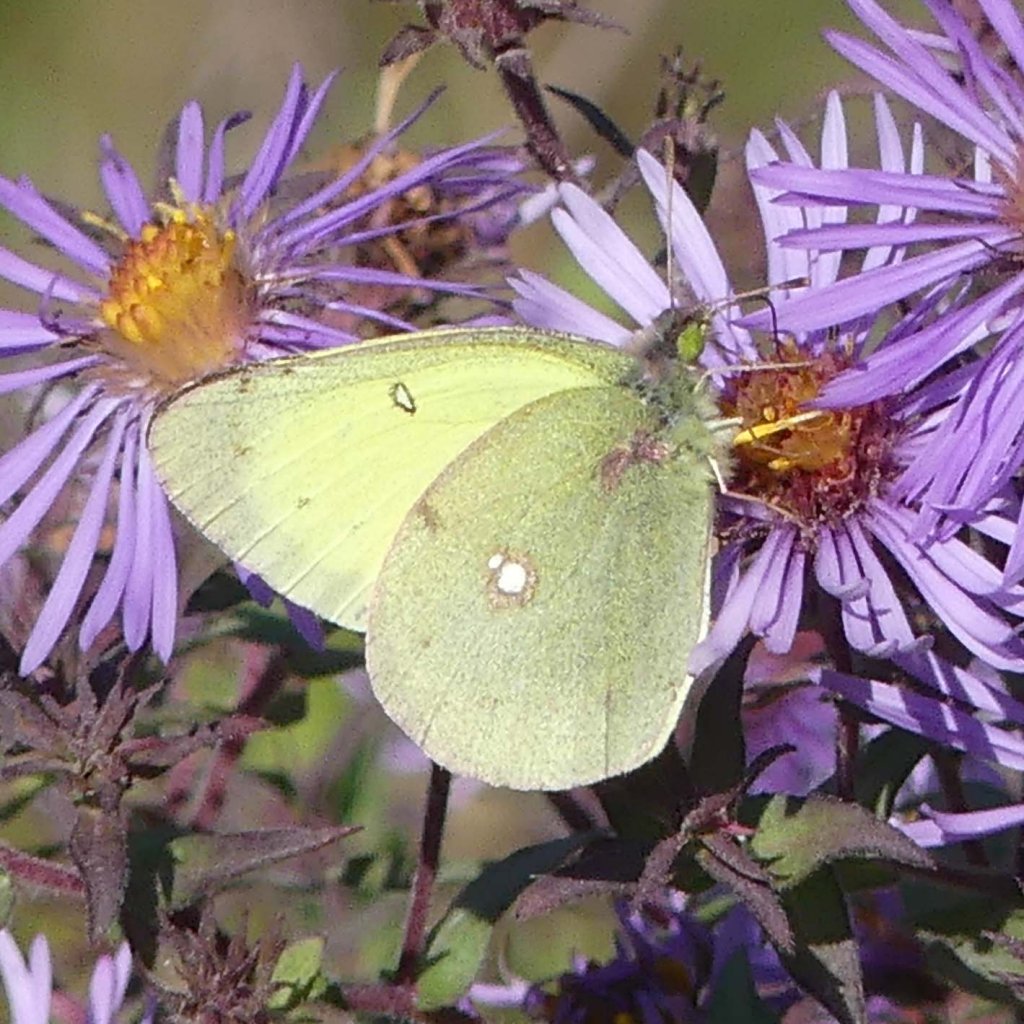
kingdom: Animalia
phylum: Arthropoda
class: Insecta
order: Lepidoptera
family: Pieridae
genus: Colias
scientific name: Colias philodice
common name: Clouded Sulphur
